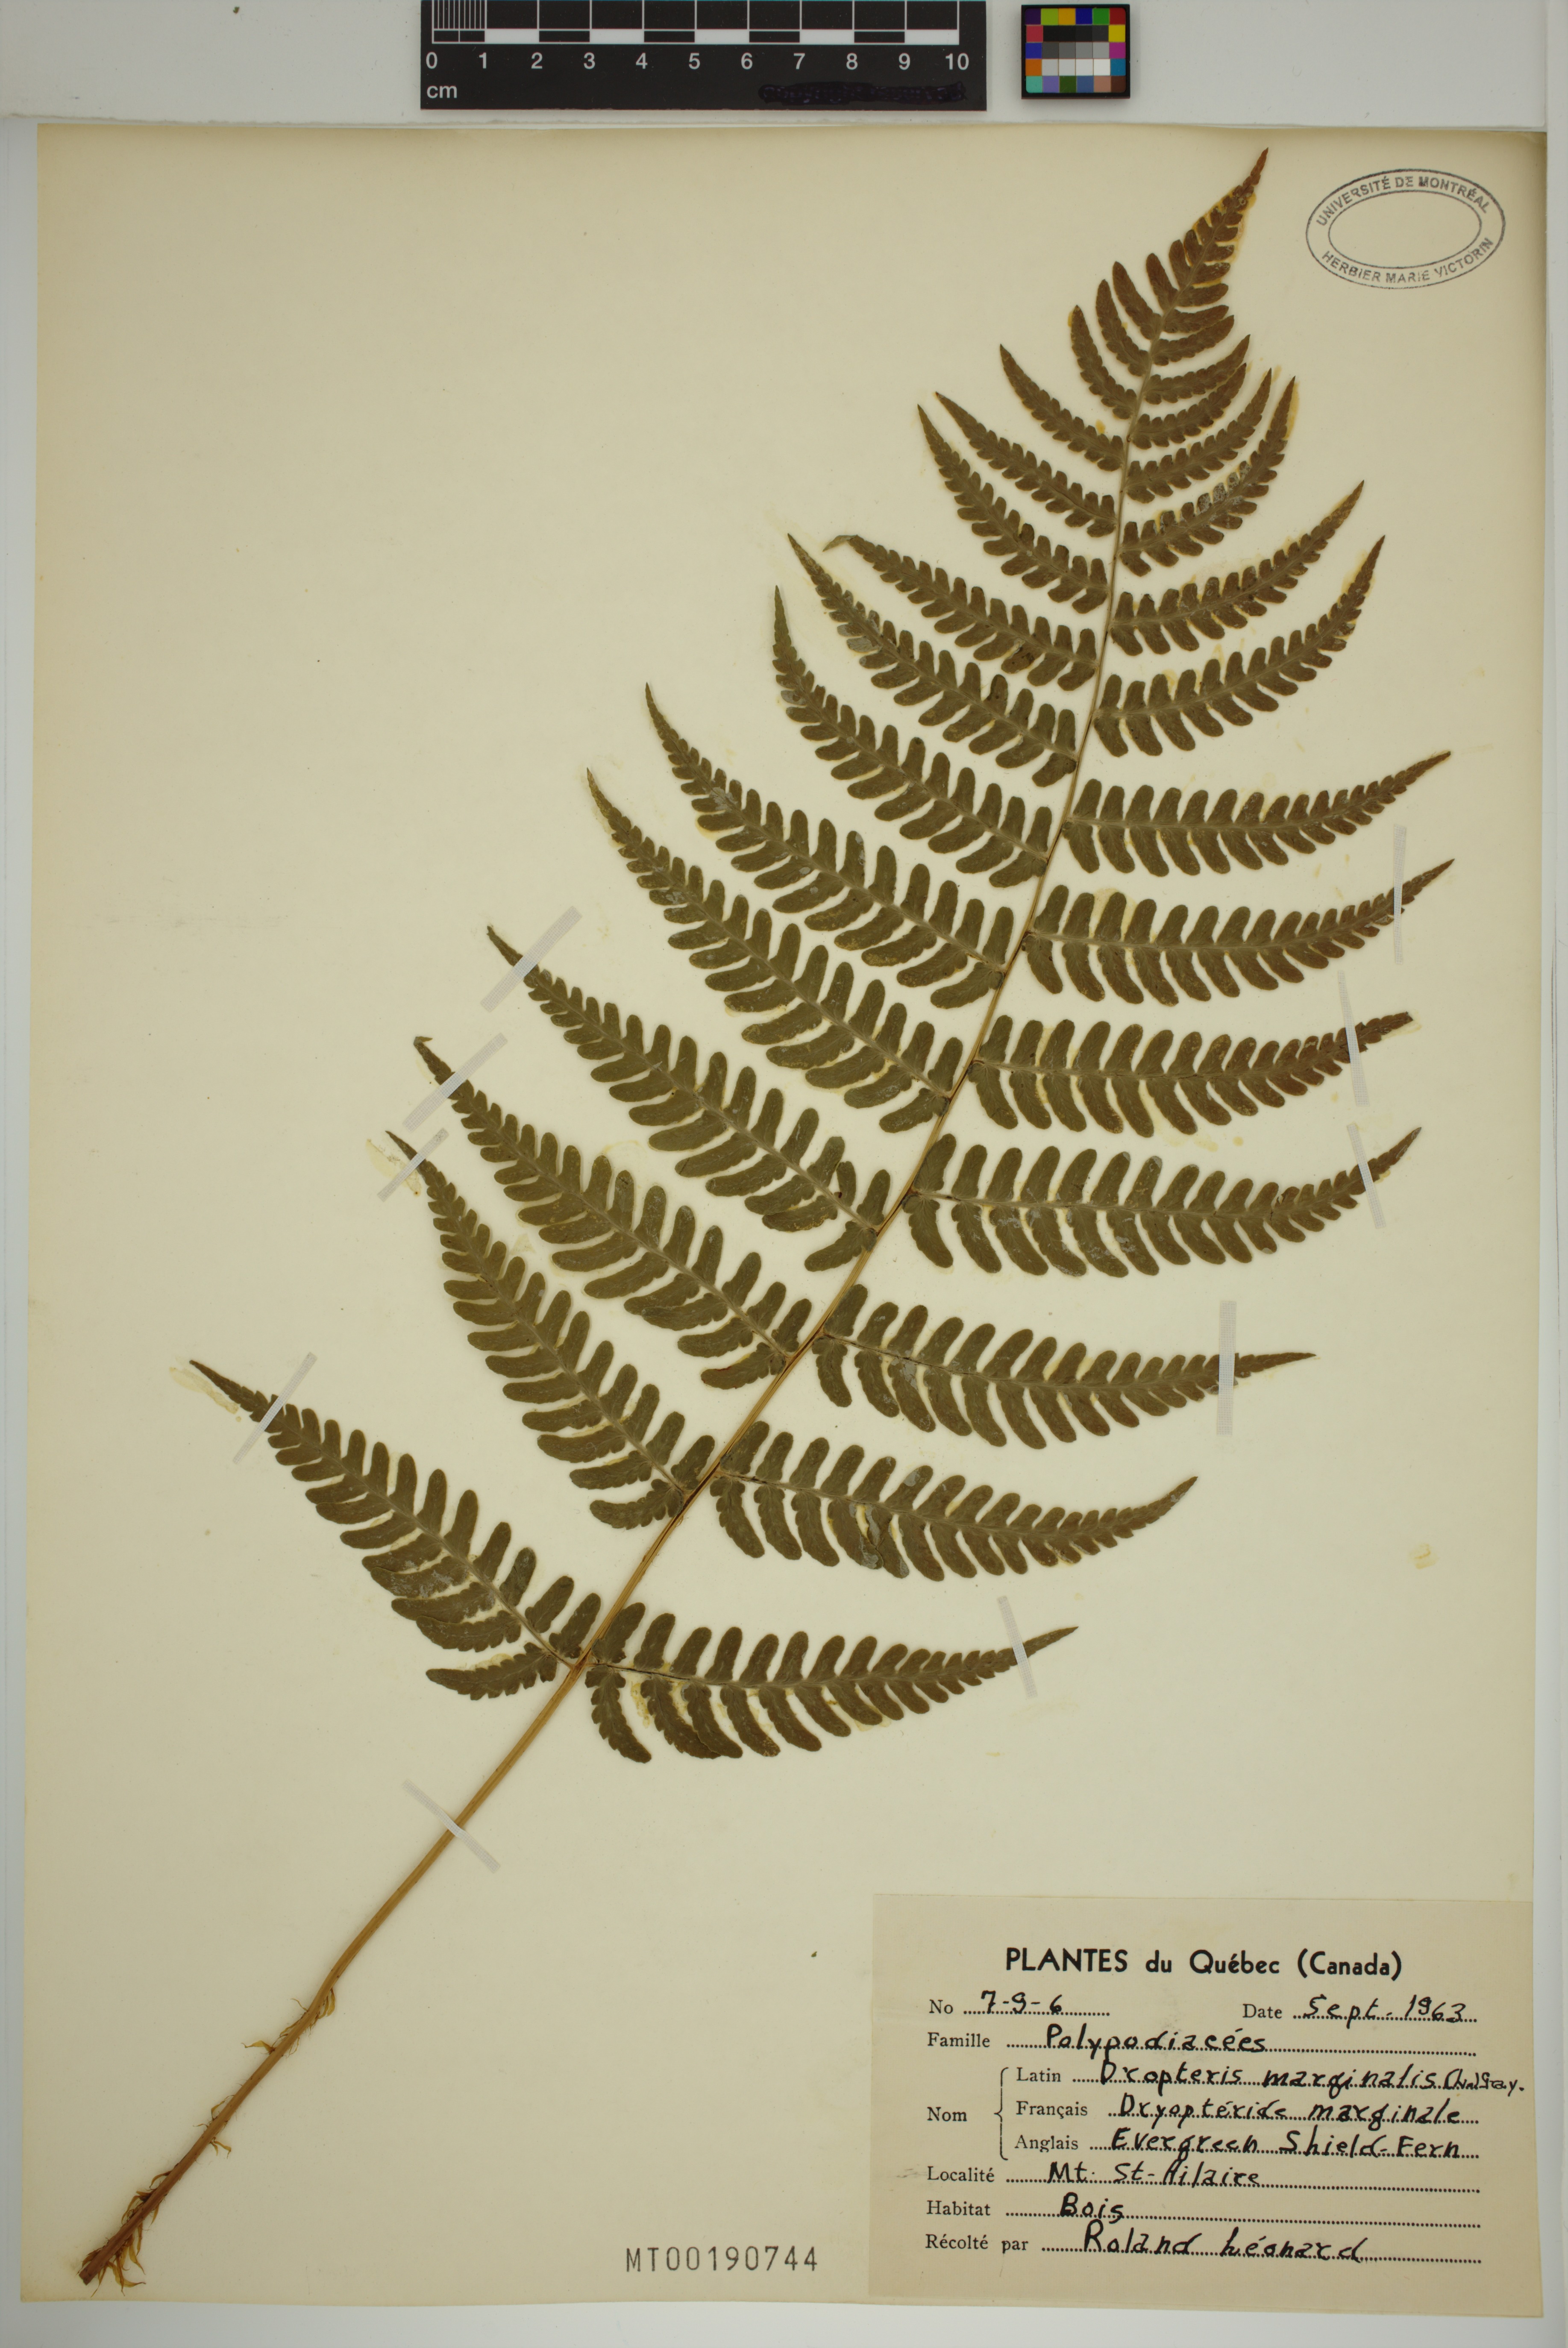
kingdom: Plantae
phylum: Tracheophyta
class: Polypodiopsida
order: Polypodiales
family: Dryopteridaceae
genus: Dryopteris
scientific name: Dryopteris marginalis
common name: Marginal wood fern
